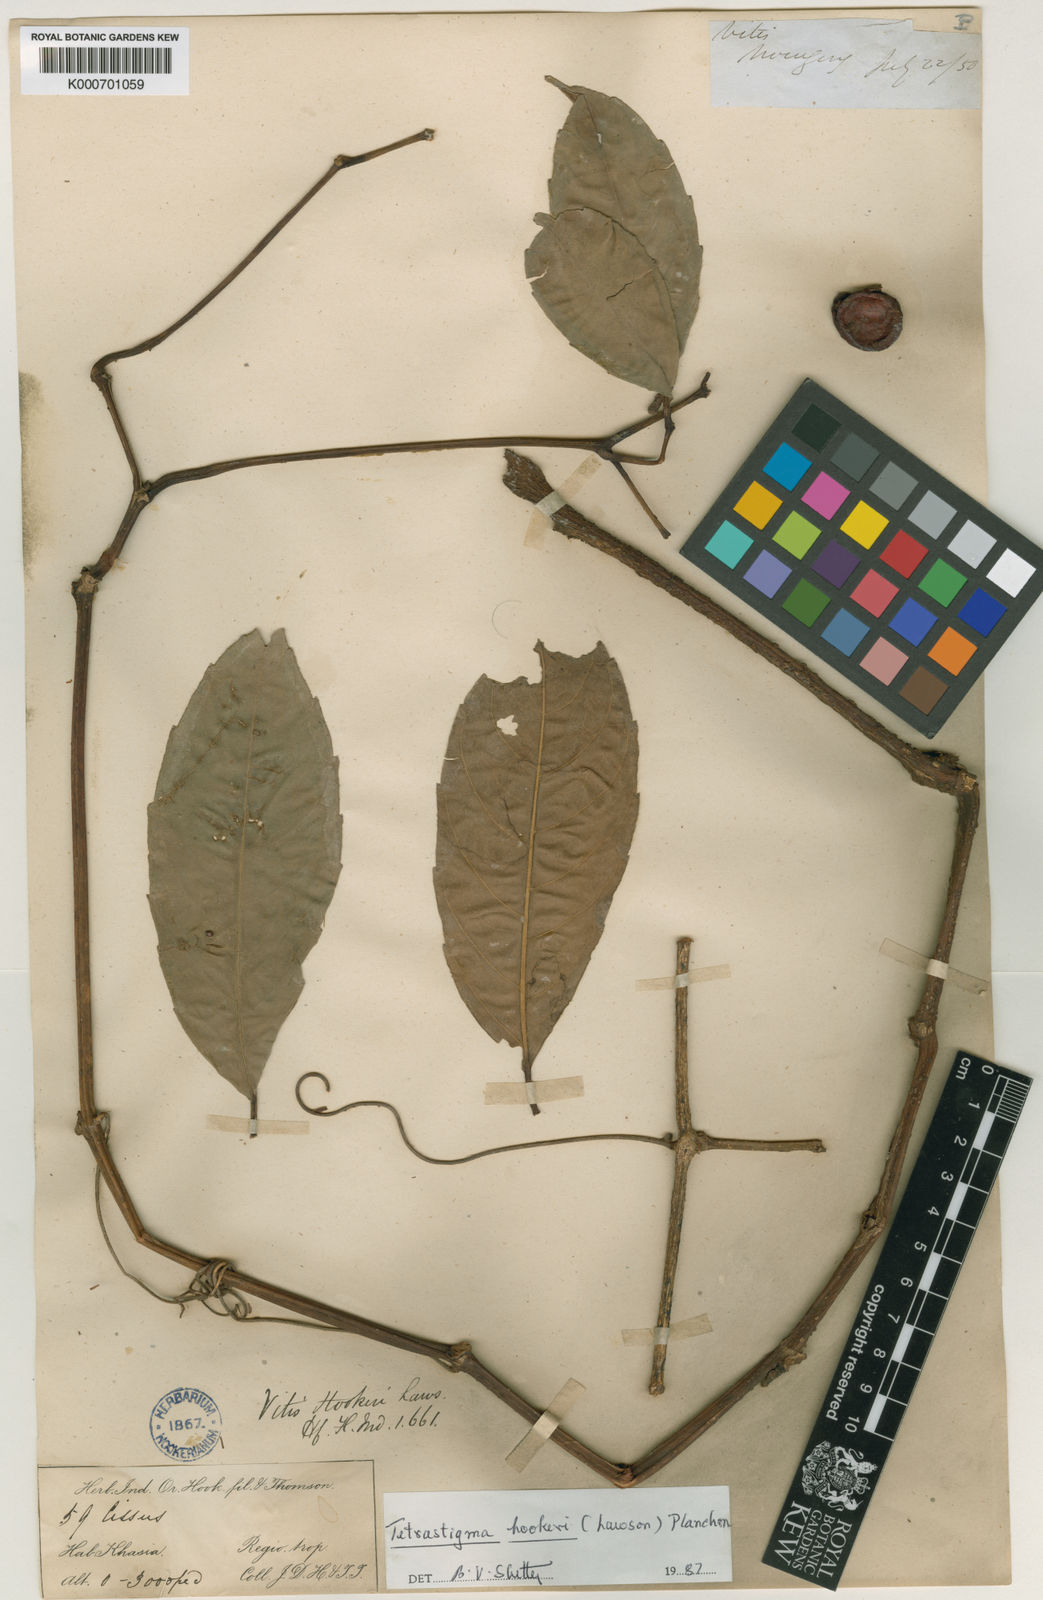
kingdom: Plantae
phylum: Tracheophyta
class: Magnoliopsida
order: Vitales
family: Vitaceae
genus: Tetrastigma
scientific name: Tetrastigma hookeri
